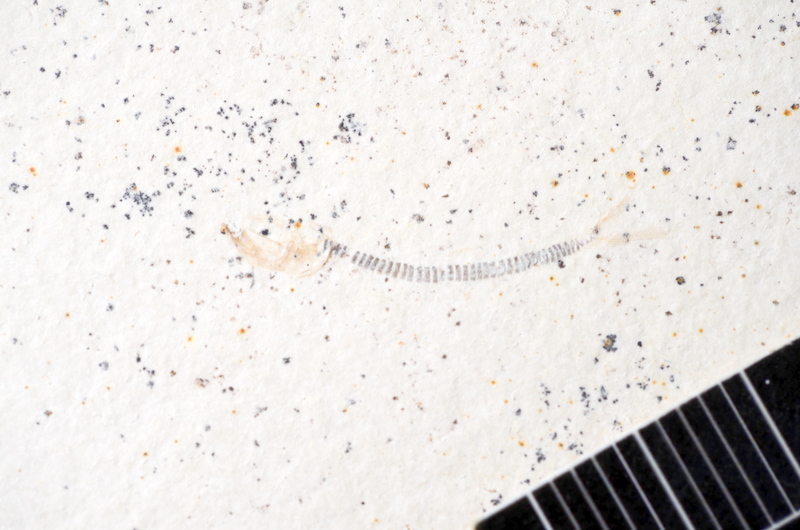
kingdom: Animalia
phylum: Chordata
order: Salmoniformes
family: Orthogonikleithridae
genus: Orthogonikleithrus
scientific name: Orthogonikleithrus
